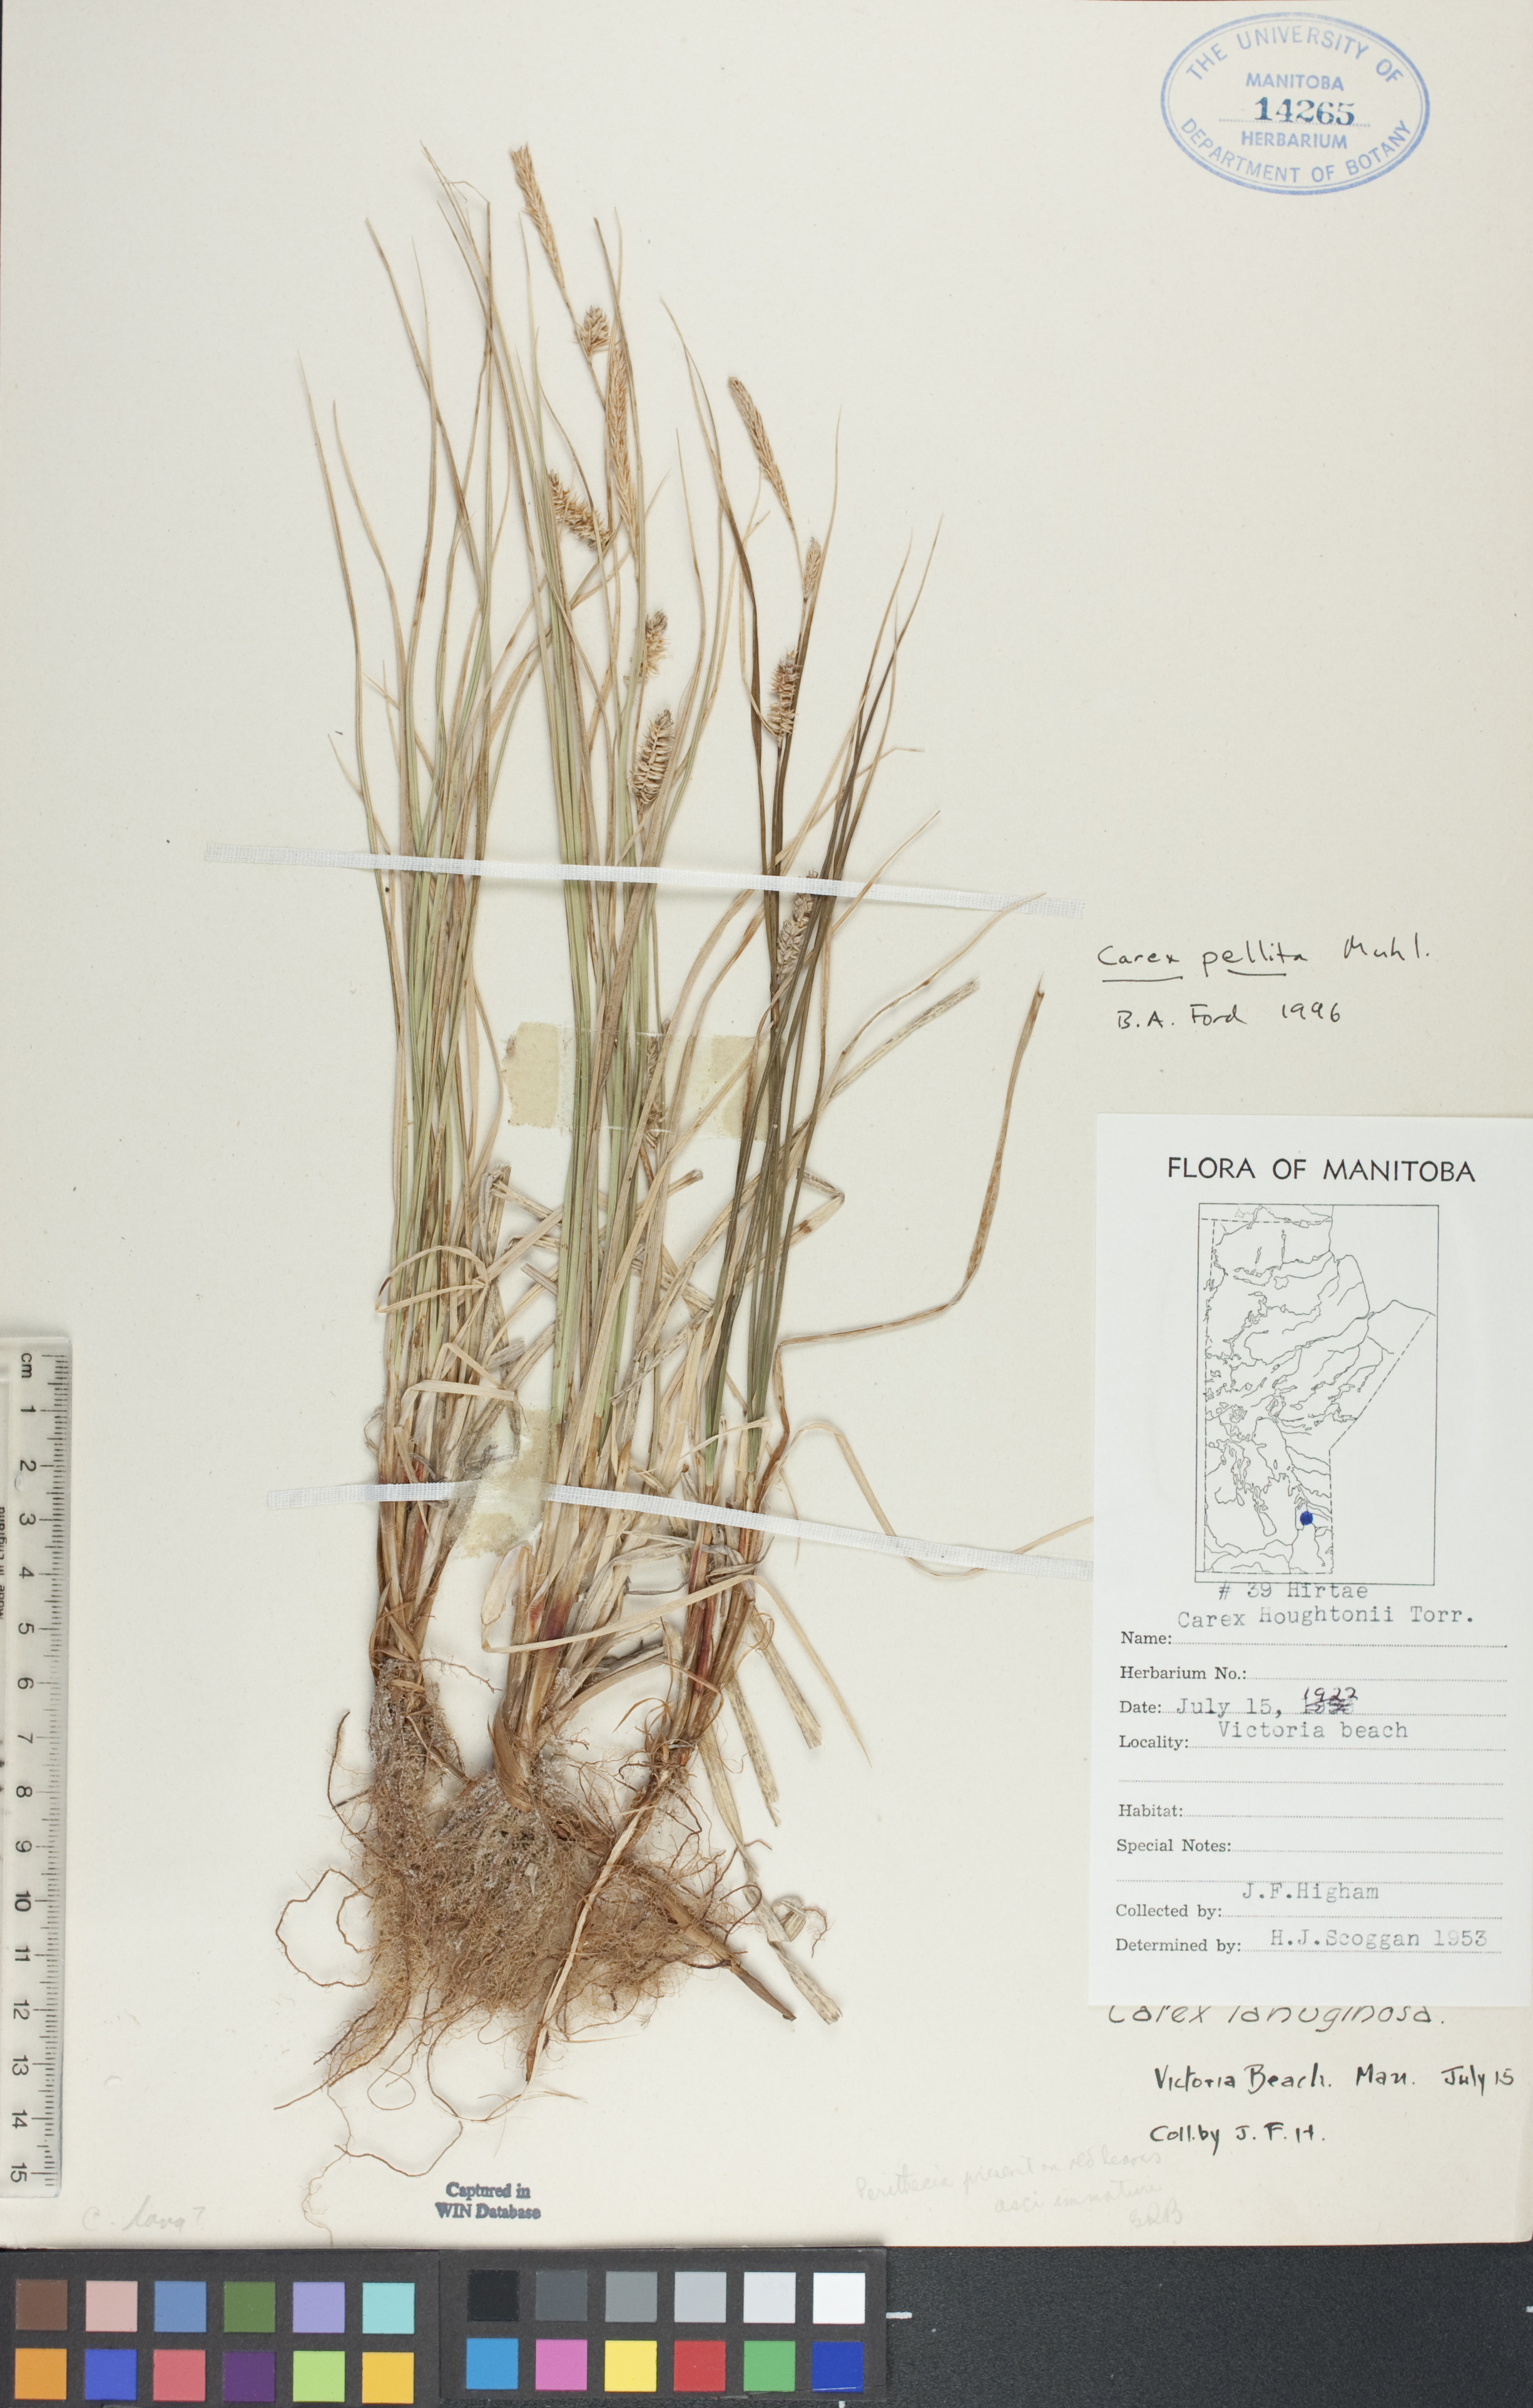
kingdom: Plantae
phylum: Tracheophyta
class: Liliopsida
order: Poales
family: Cyperaceae
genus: Carex
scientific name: Carex pellita
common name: Woolly sedge
